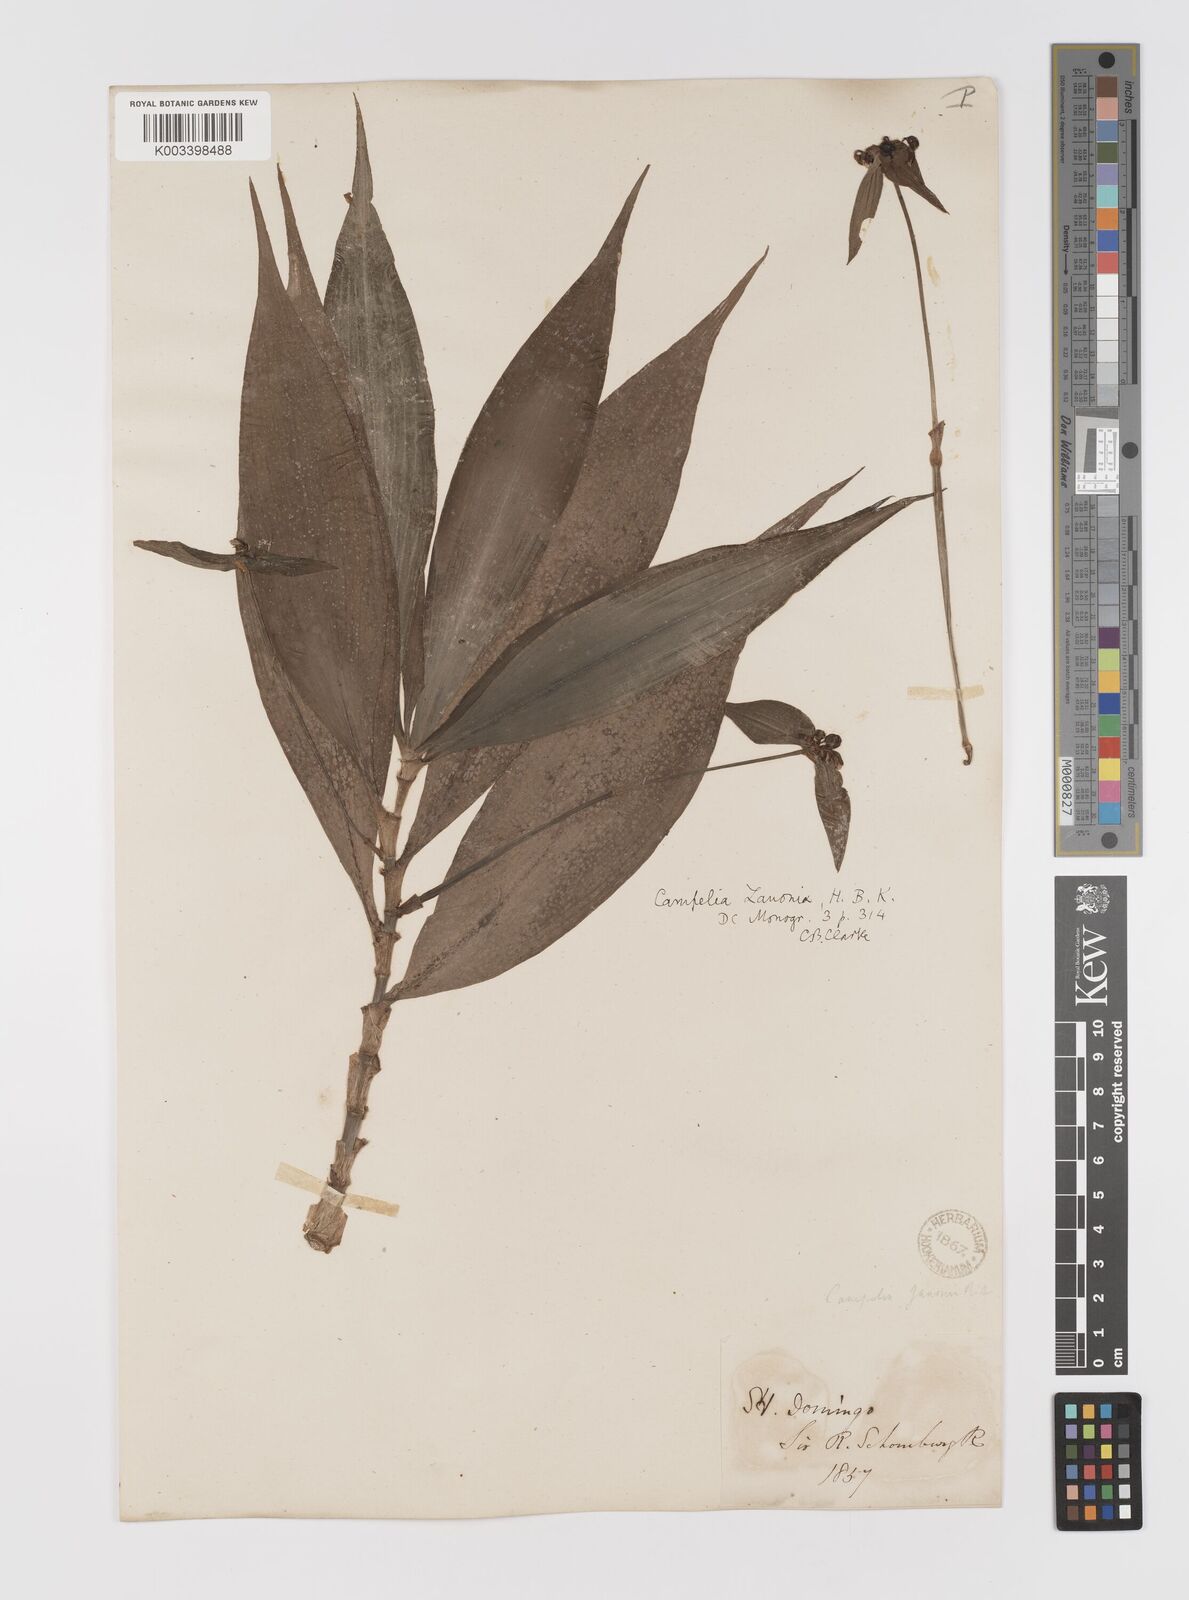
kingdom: Plantae
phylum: Tracheophyta
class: Liliopsida
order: Commelinales
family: Commelinaceae
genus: Tradescantia
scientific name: Tradescantia zanonia
